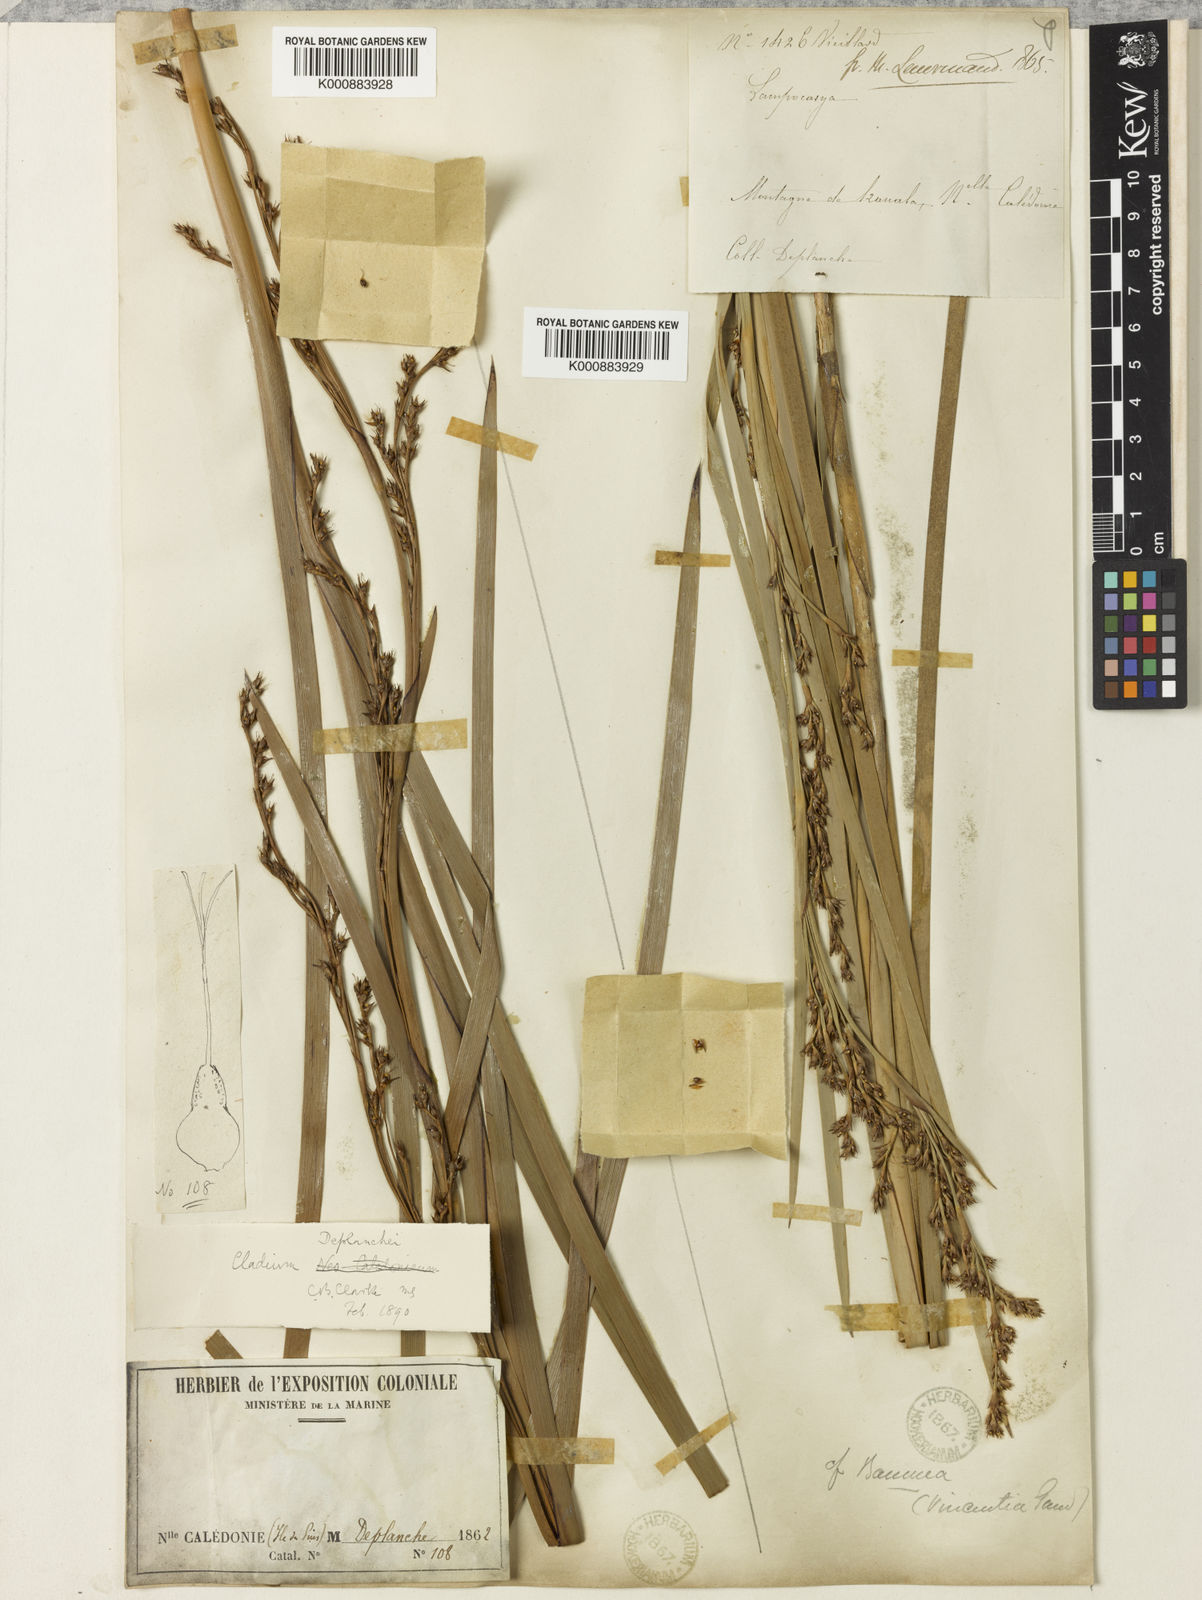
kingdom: Plantae
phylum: Tracheophyta
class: Liliopsida
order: Poales
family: Cyperaceae
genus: Machaerina
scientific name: Machaerina deplanchei
